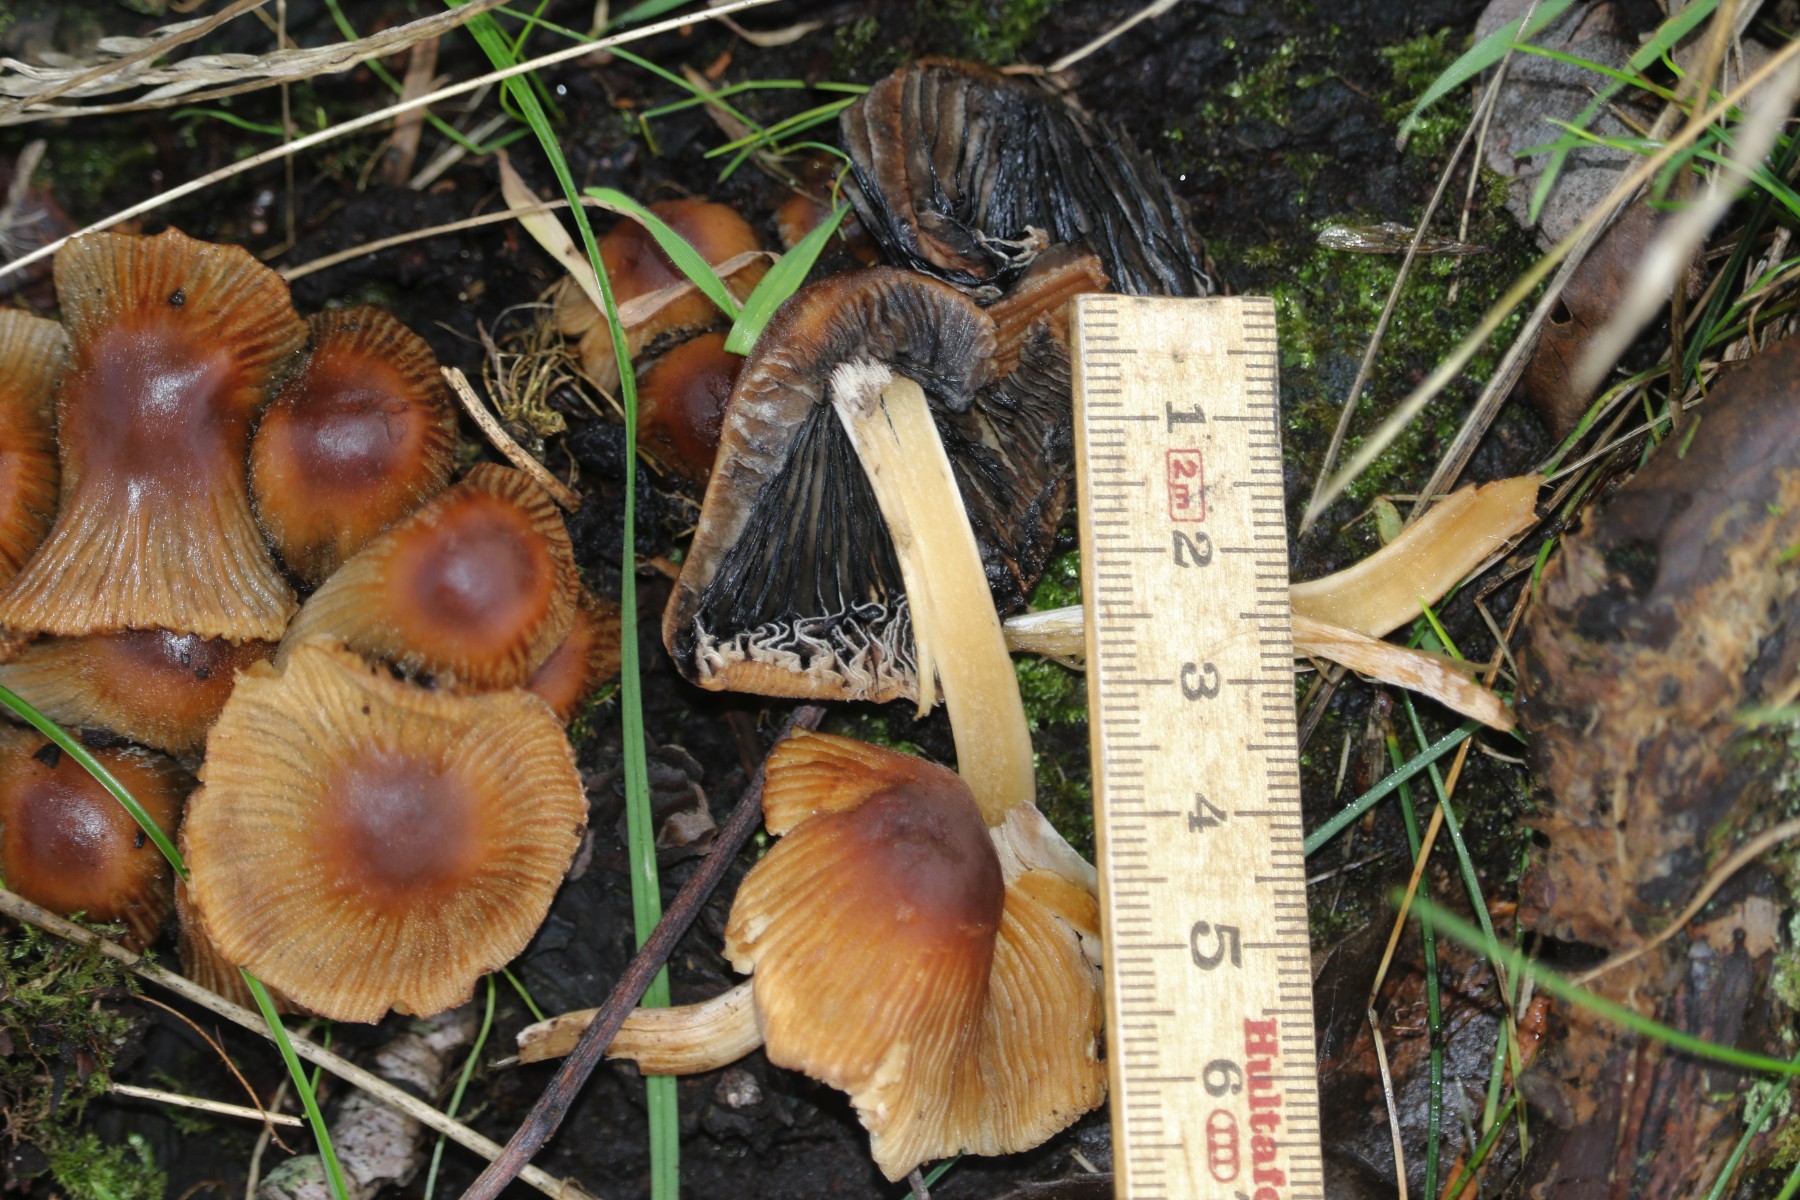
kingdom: Fungi
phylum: Basidiomycota
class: Agaricomycetes
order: Agaricales
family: Psathyrellaceae
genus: Coprinellus
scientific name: Coprinellus
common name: blækhat
